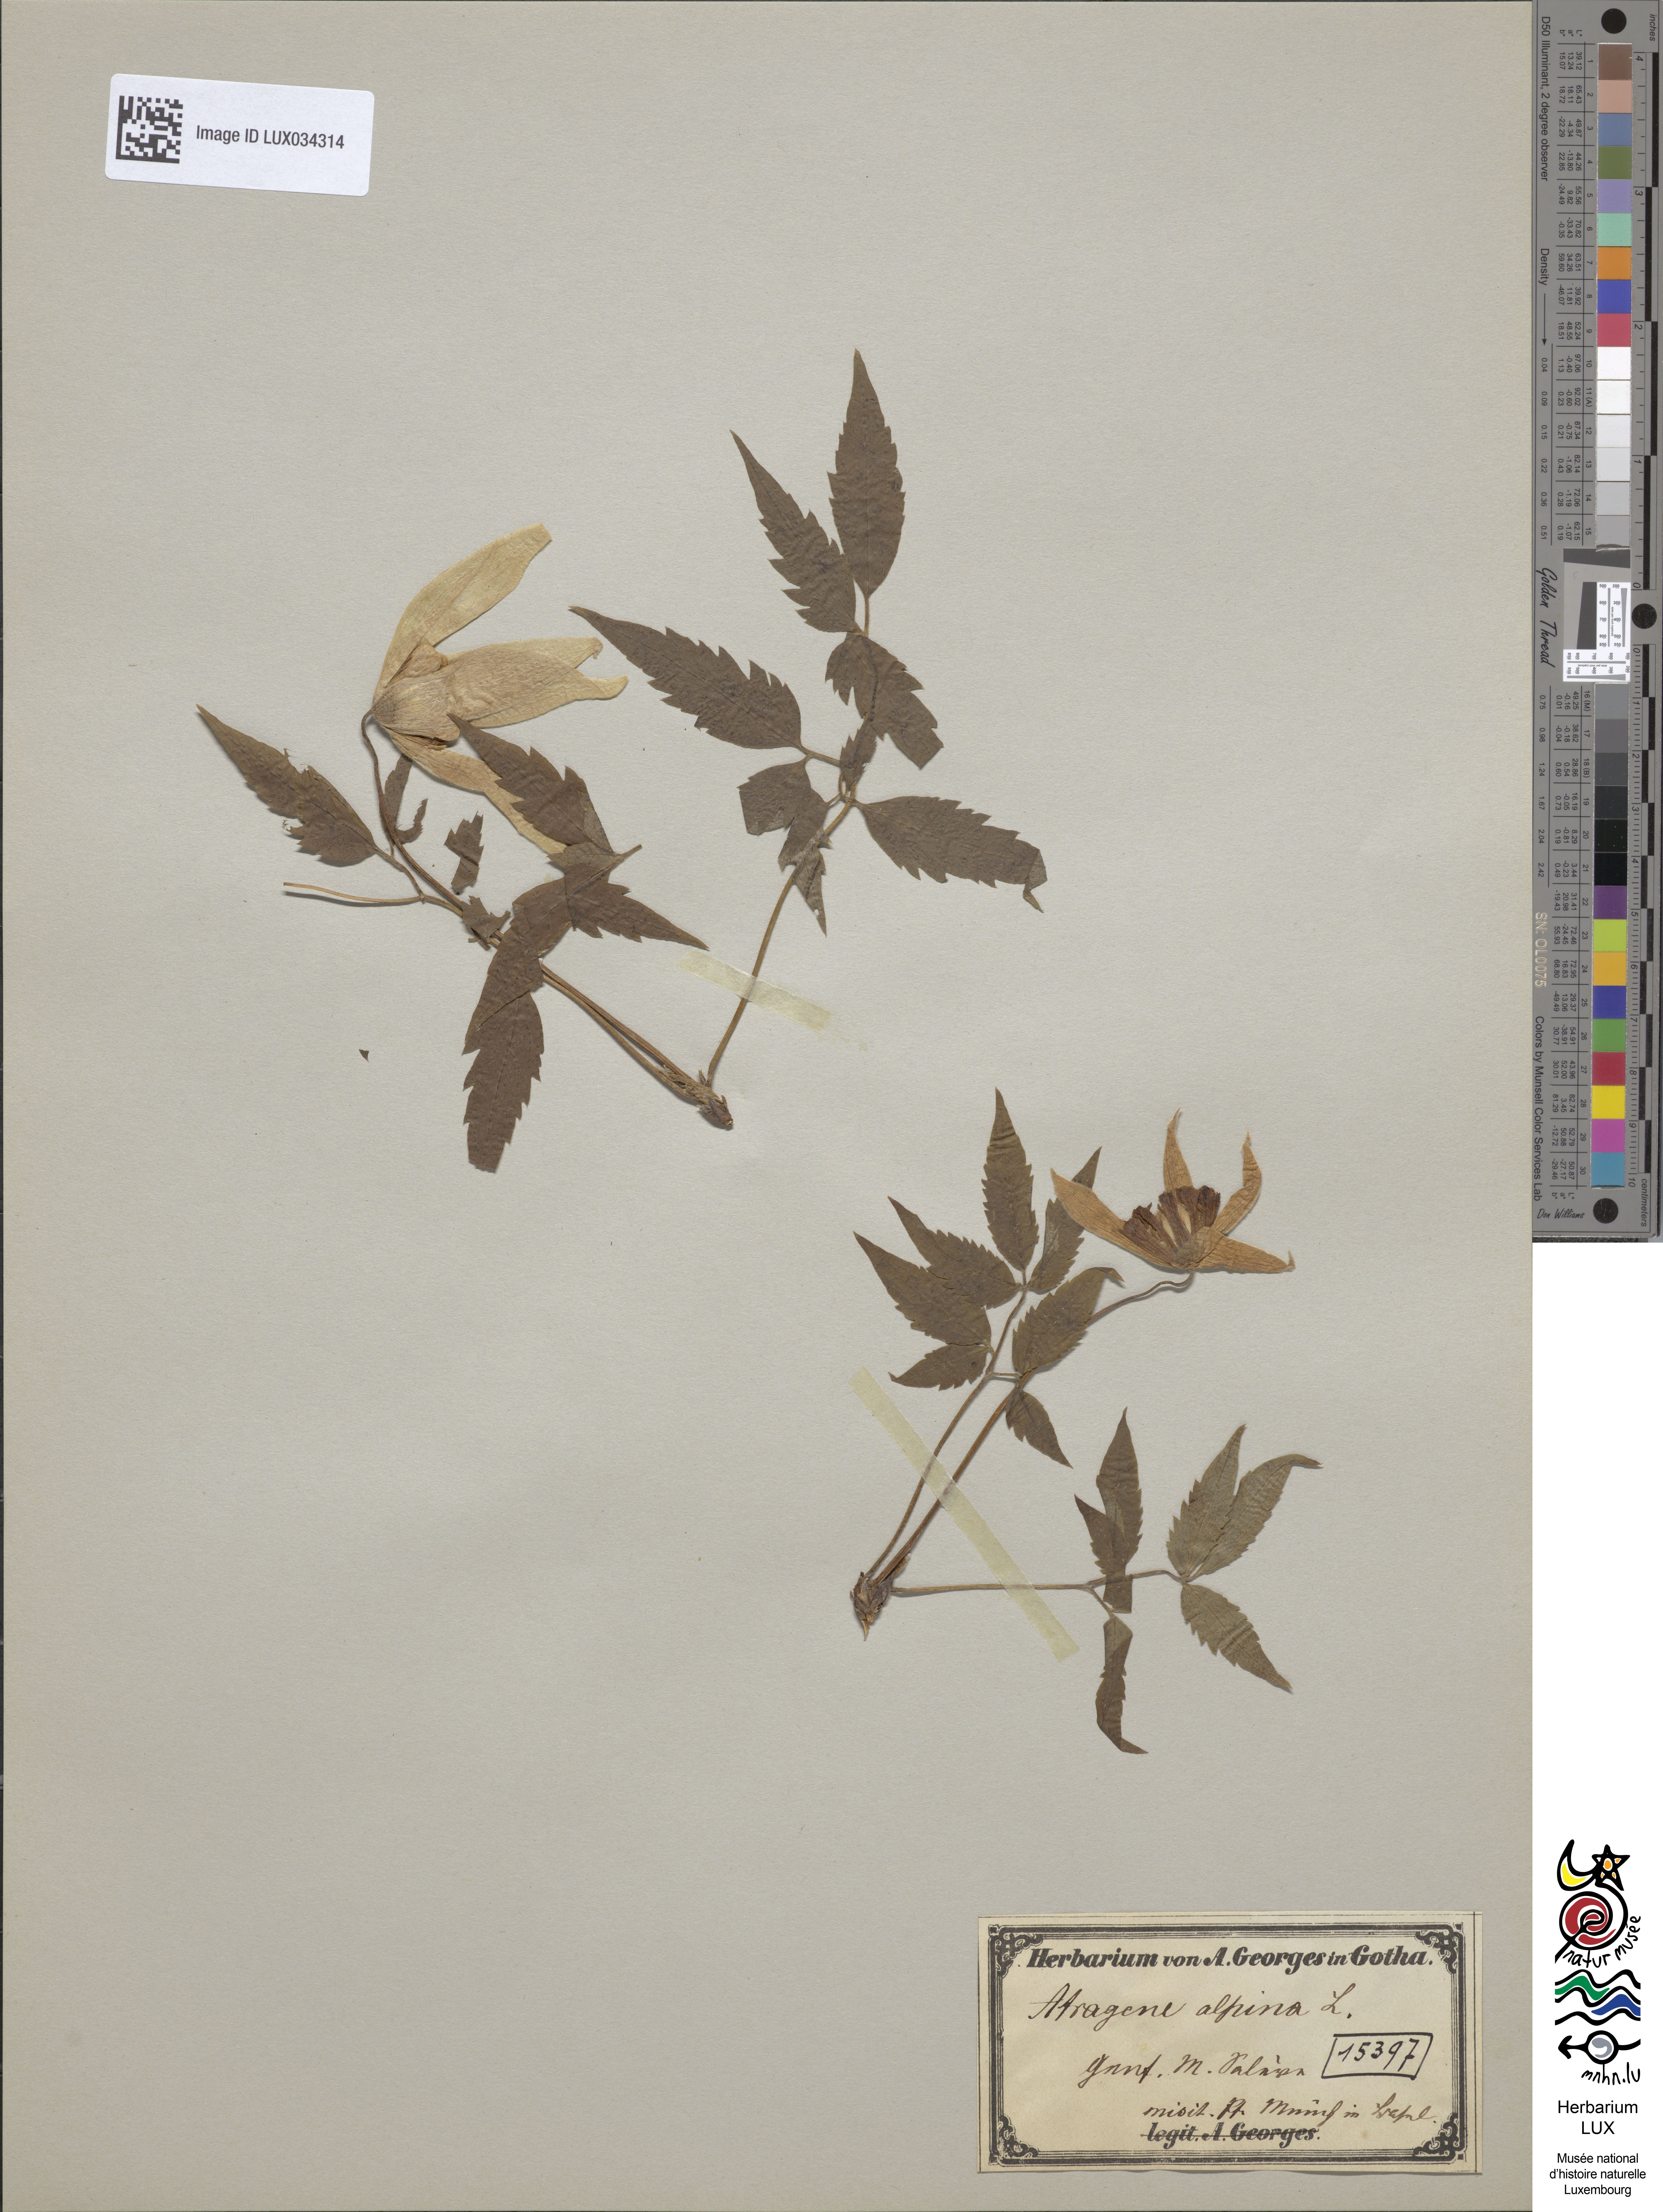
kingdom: Plantae
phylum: Tracheophyta
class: Magnoliopsida
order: Ranunculales
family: Ranunculaceae
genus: Clematis
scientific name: Clematis alpina
